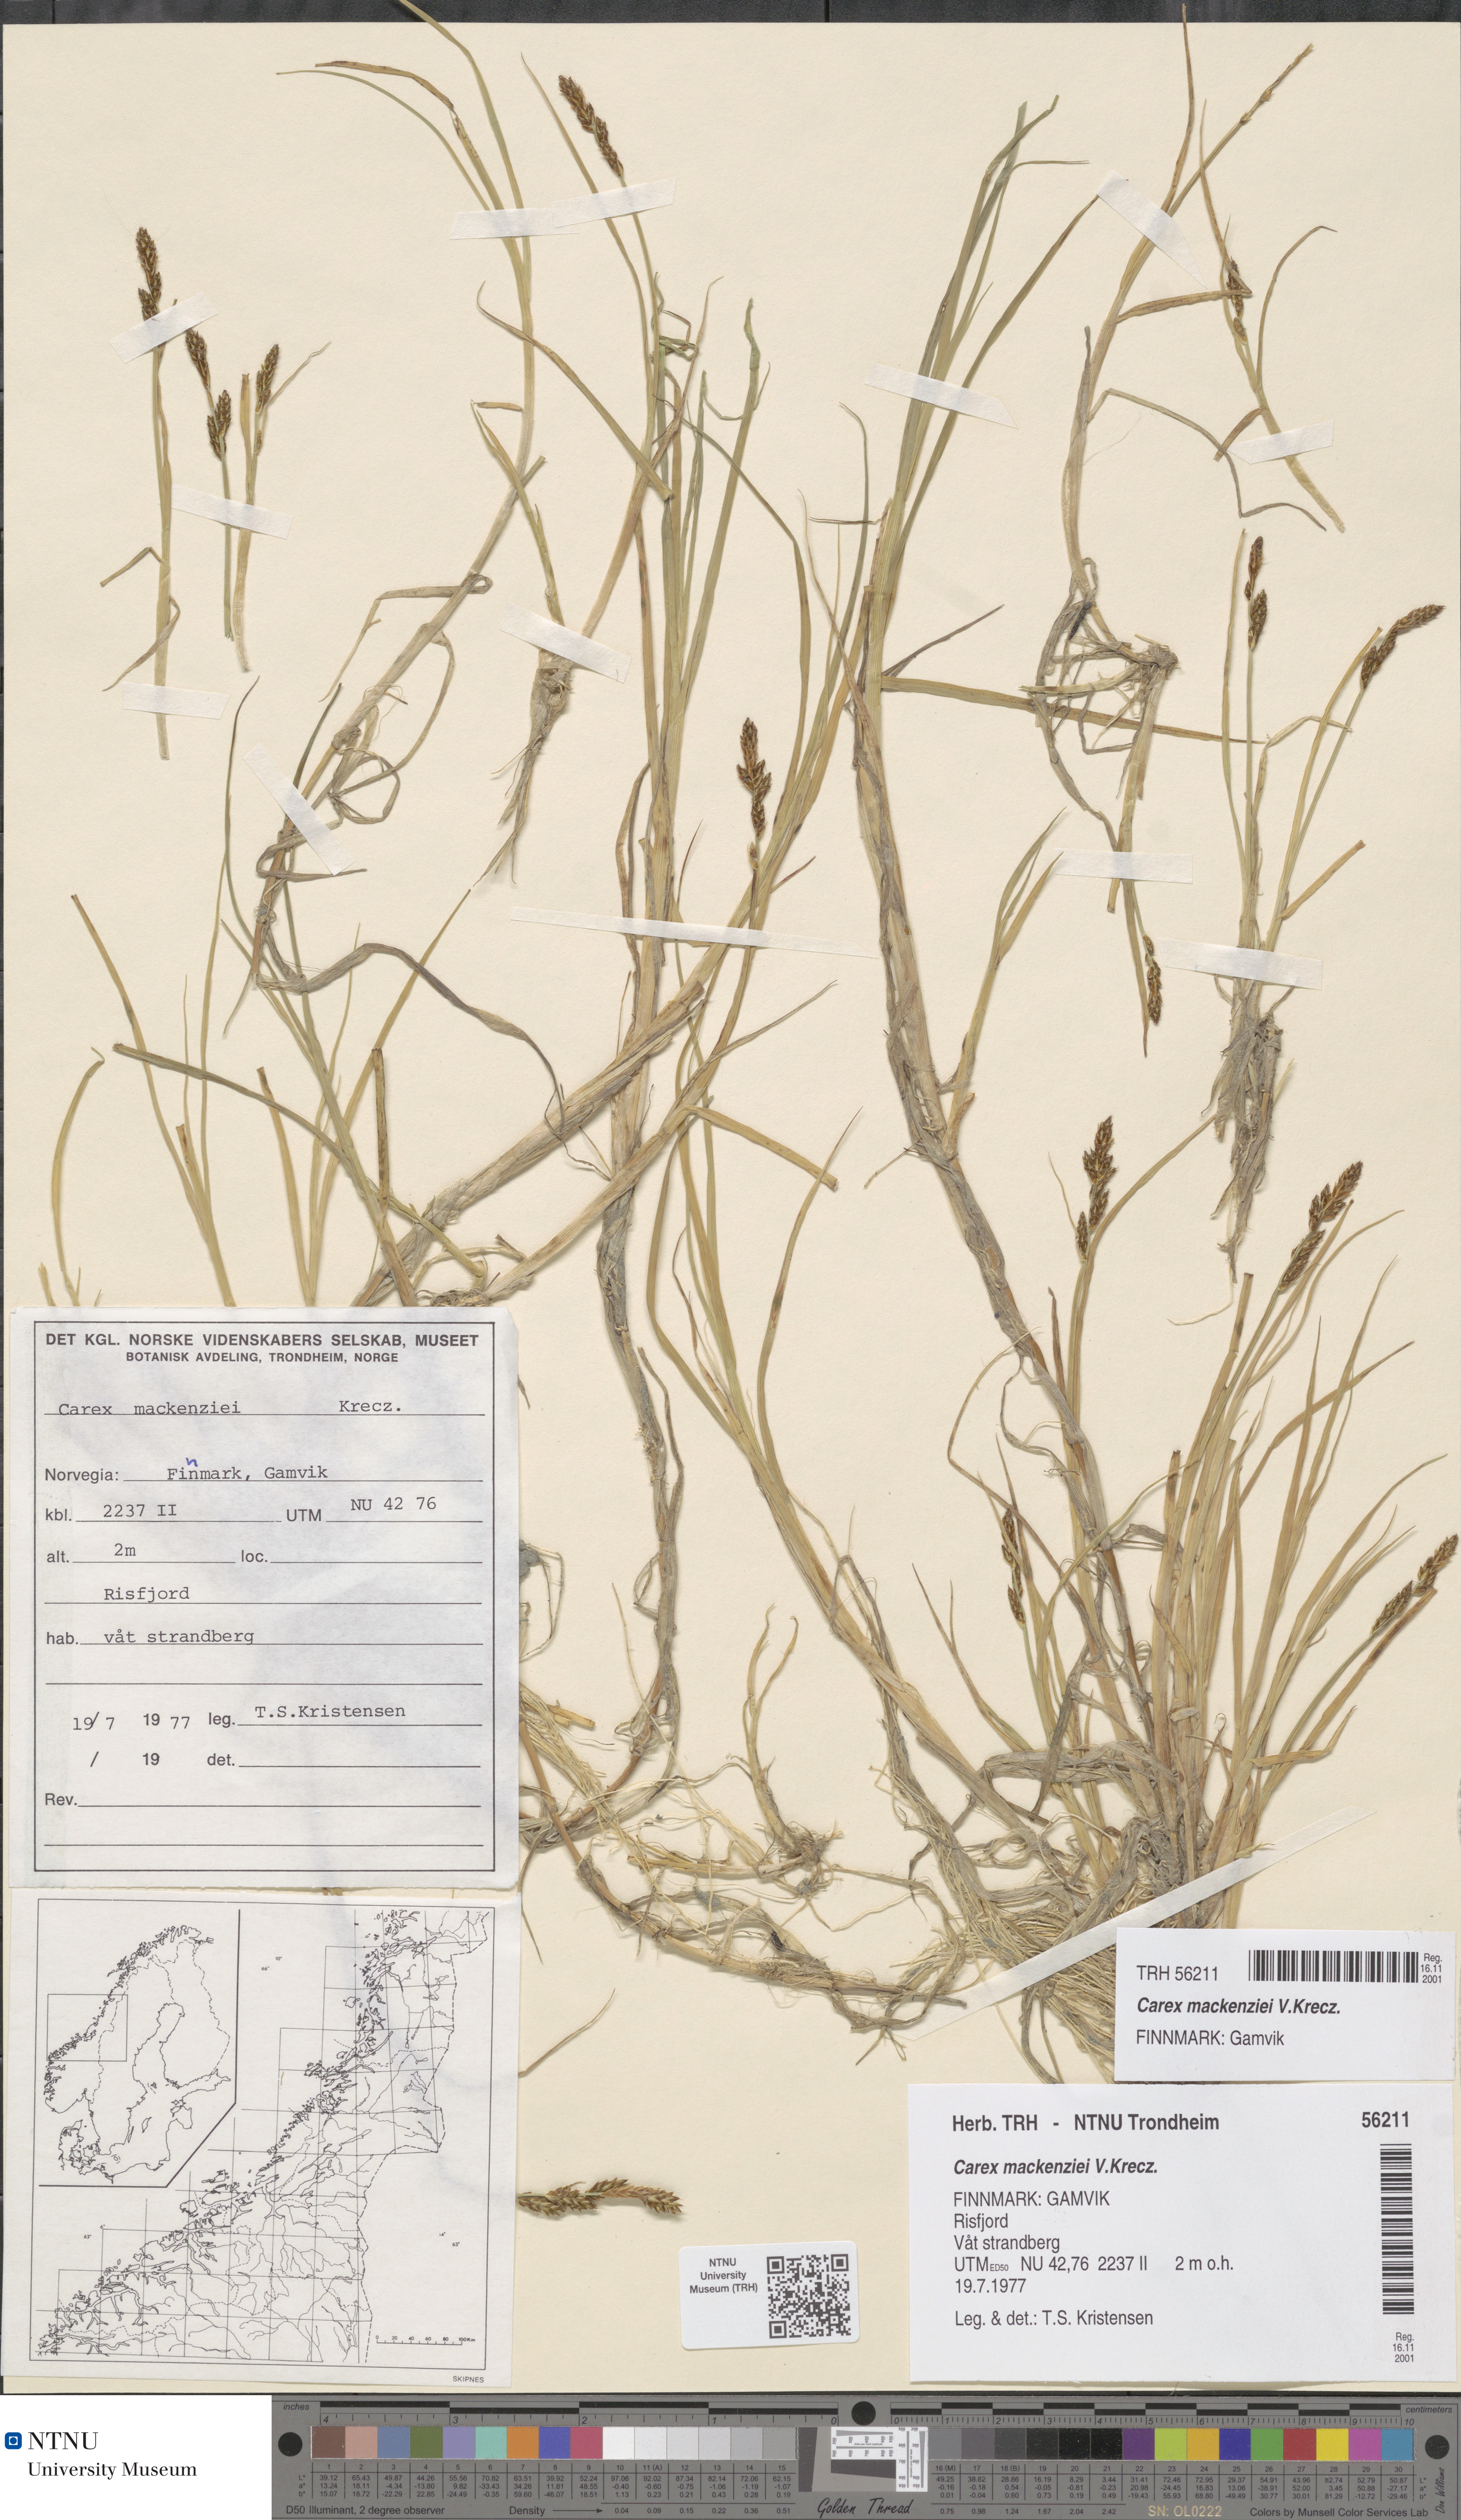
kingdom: Plantae
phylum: Tracheophyta
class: Liliopsida
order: Poales
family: Cyperaceae
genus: Carex
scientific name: Carex mackenziei
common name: Mackenzie's sedge
